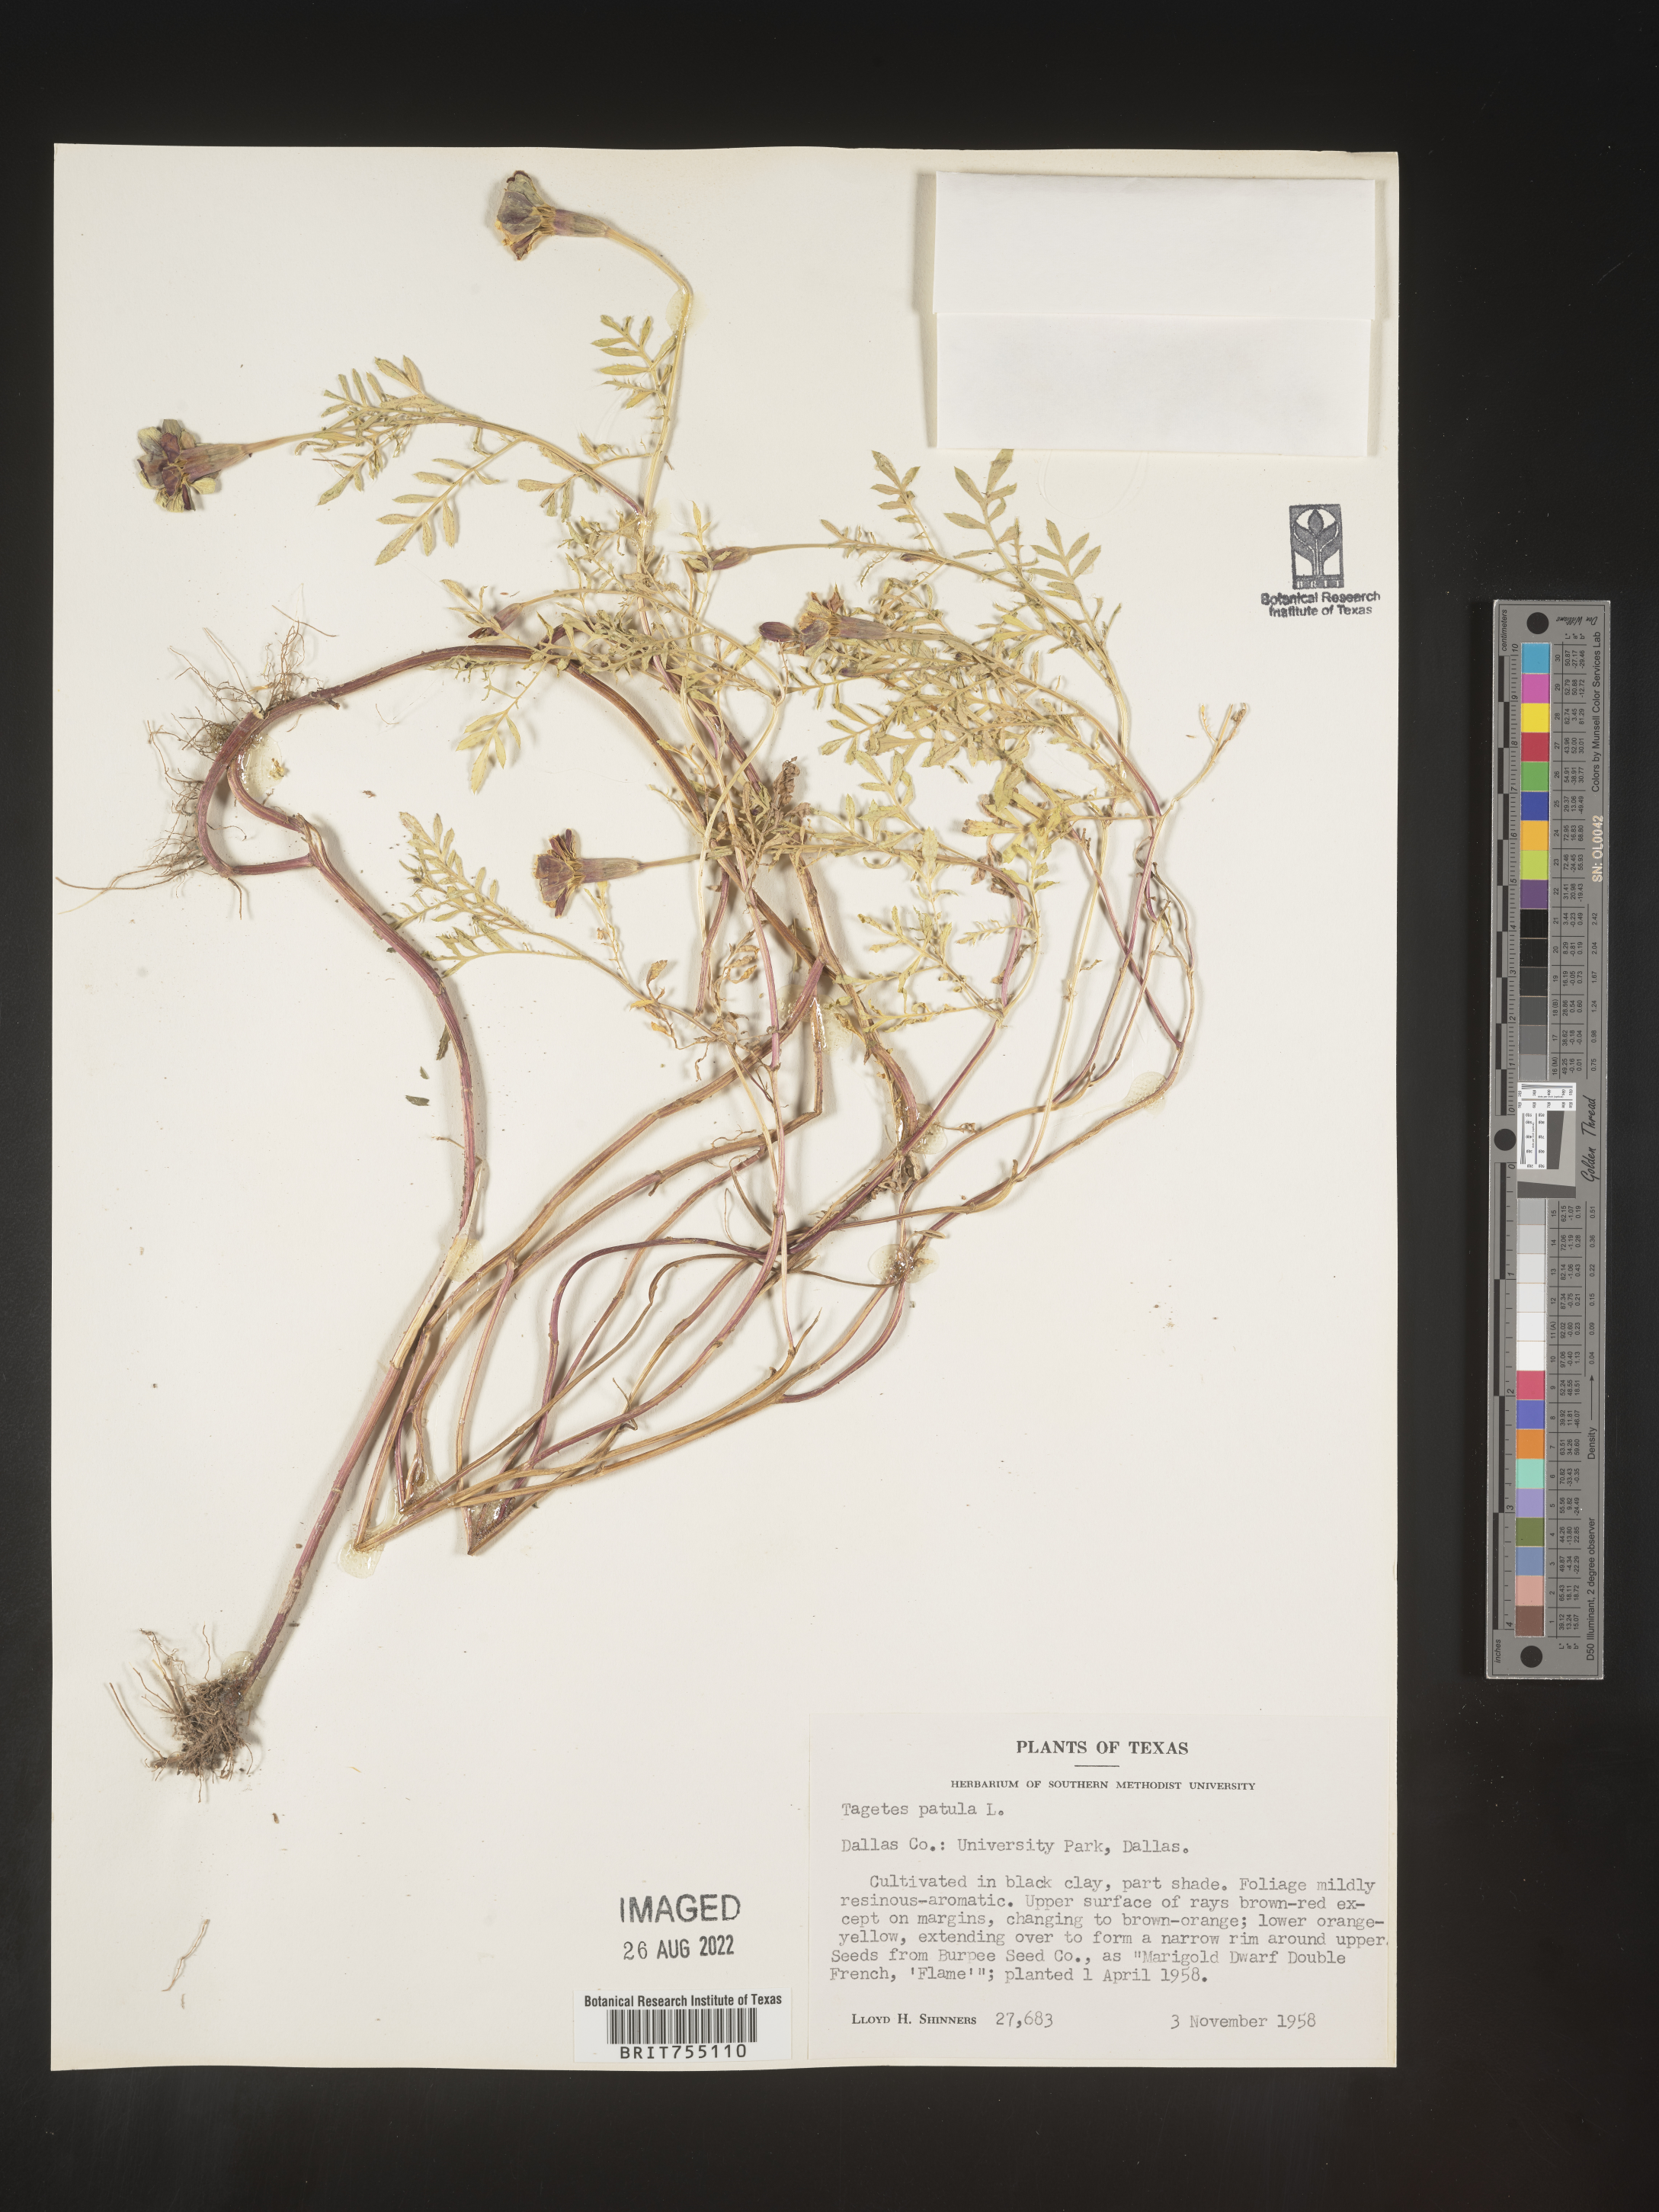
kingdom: Plantae
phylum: Tracheophyta
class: Magnoliopsida
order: Asterales
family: Asteraceae
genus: Tagetes
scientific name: Tagetes
